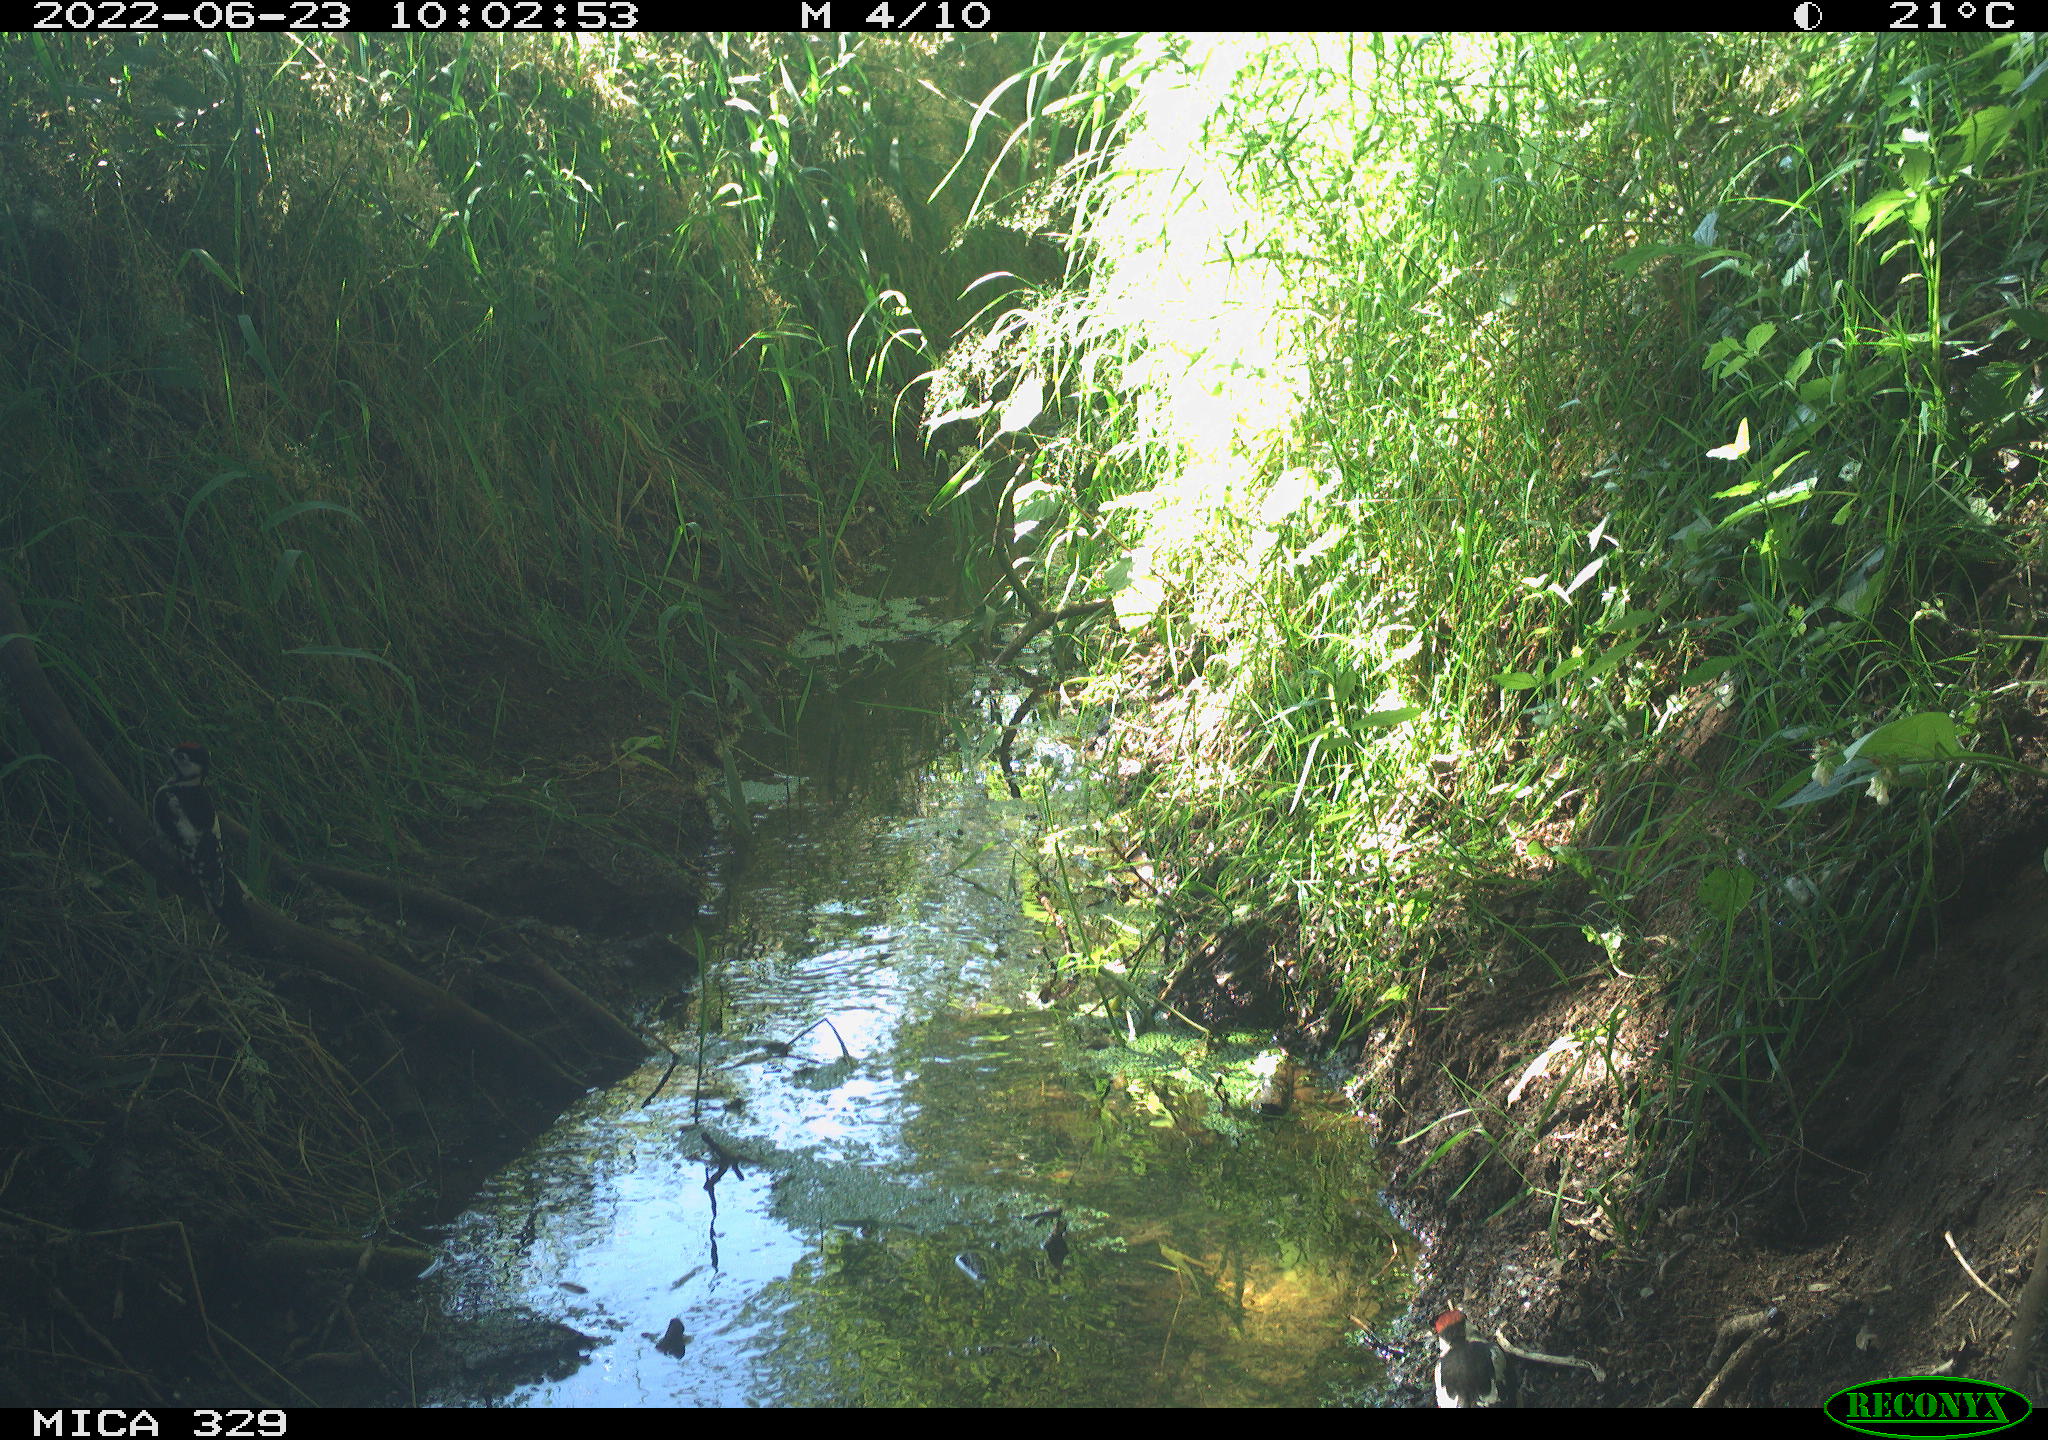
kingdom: Animalia
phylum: Chordata
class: Aves
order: Piciformes
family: Picidae
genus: Dendrocopos
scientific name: Dendrocopos major
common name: Great spotted woodpecker
